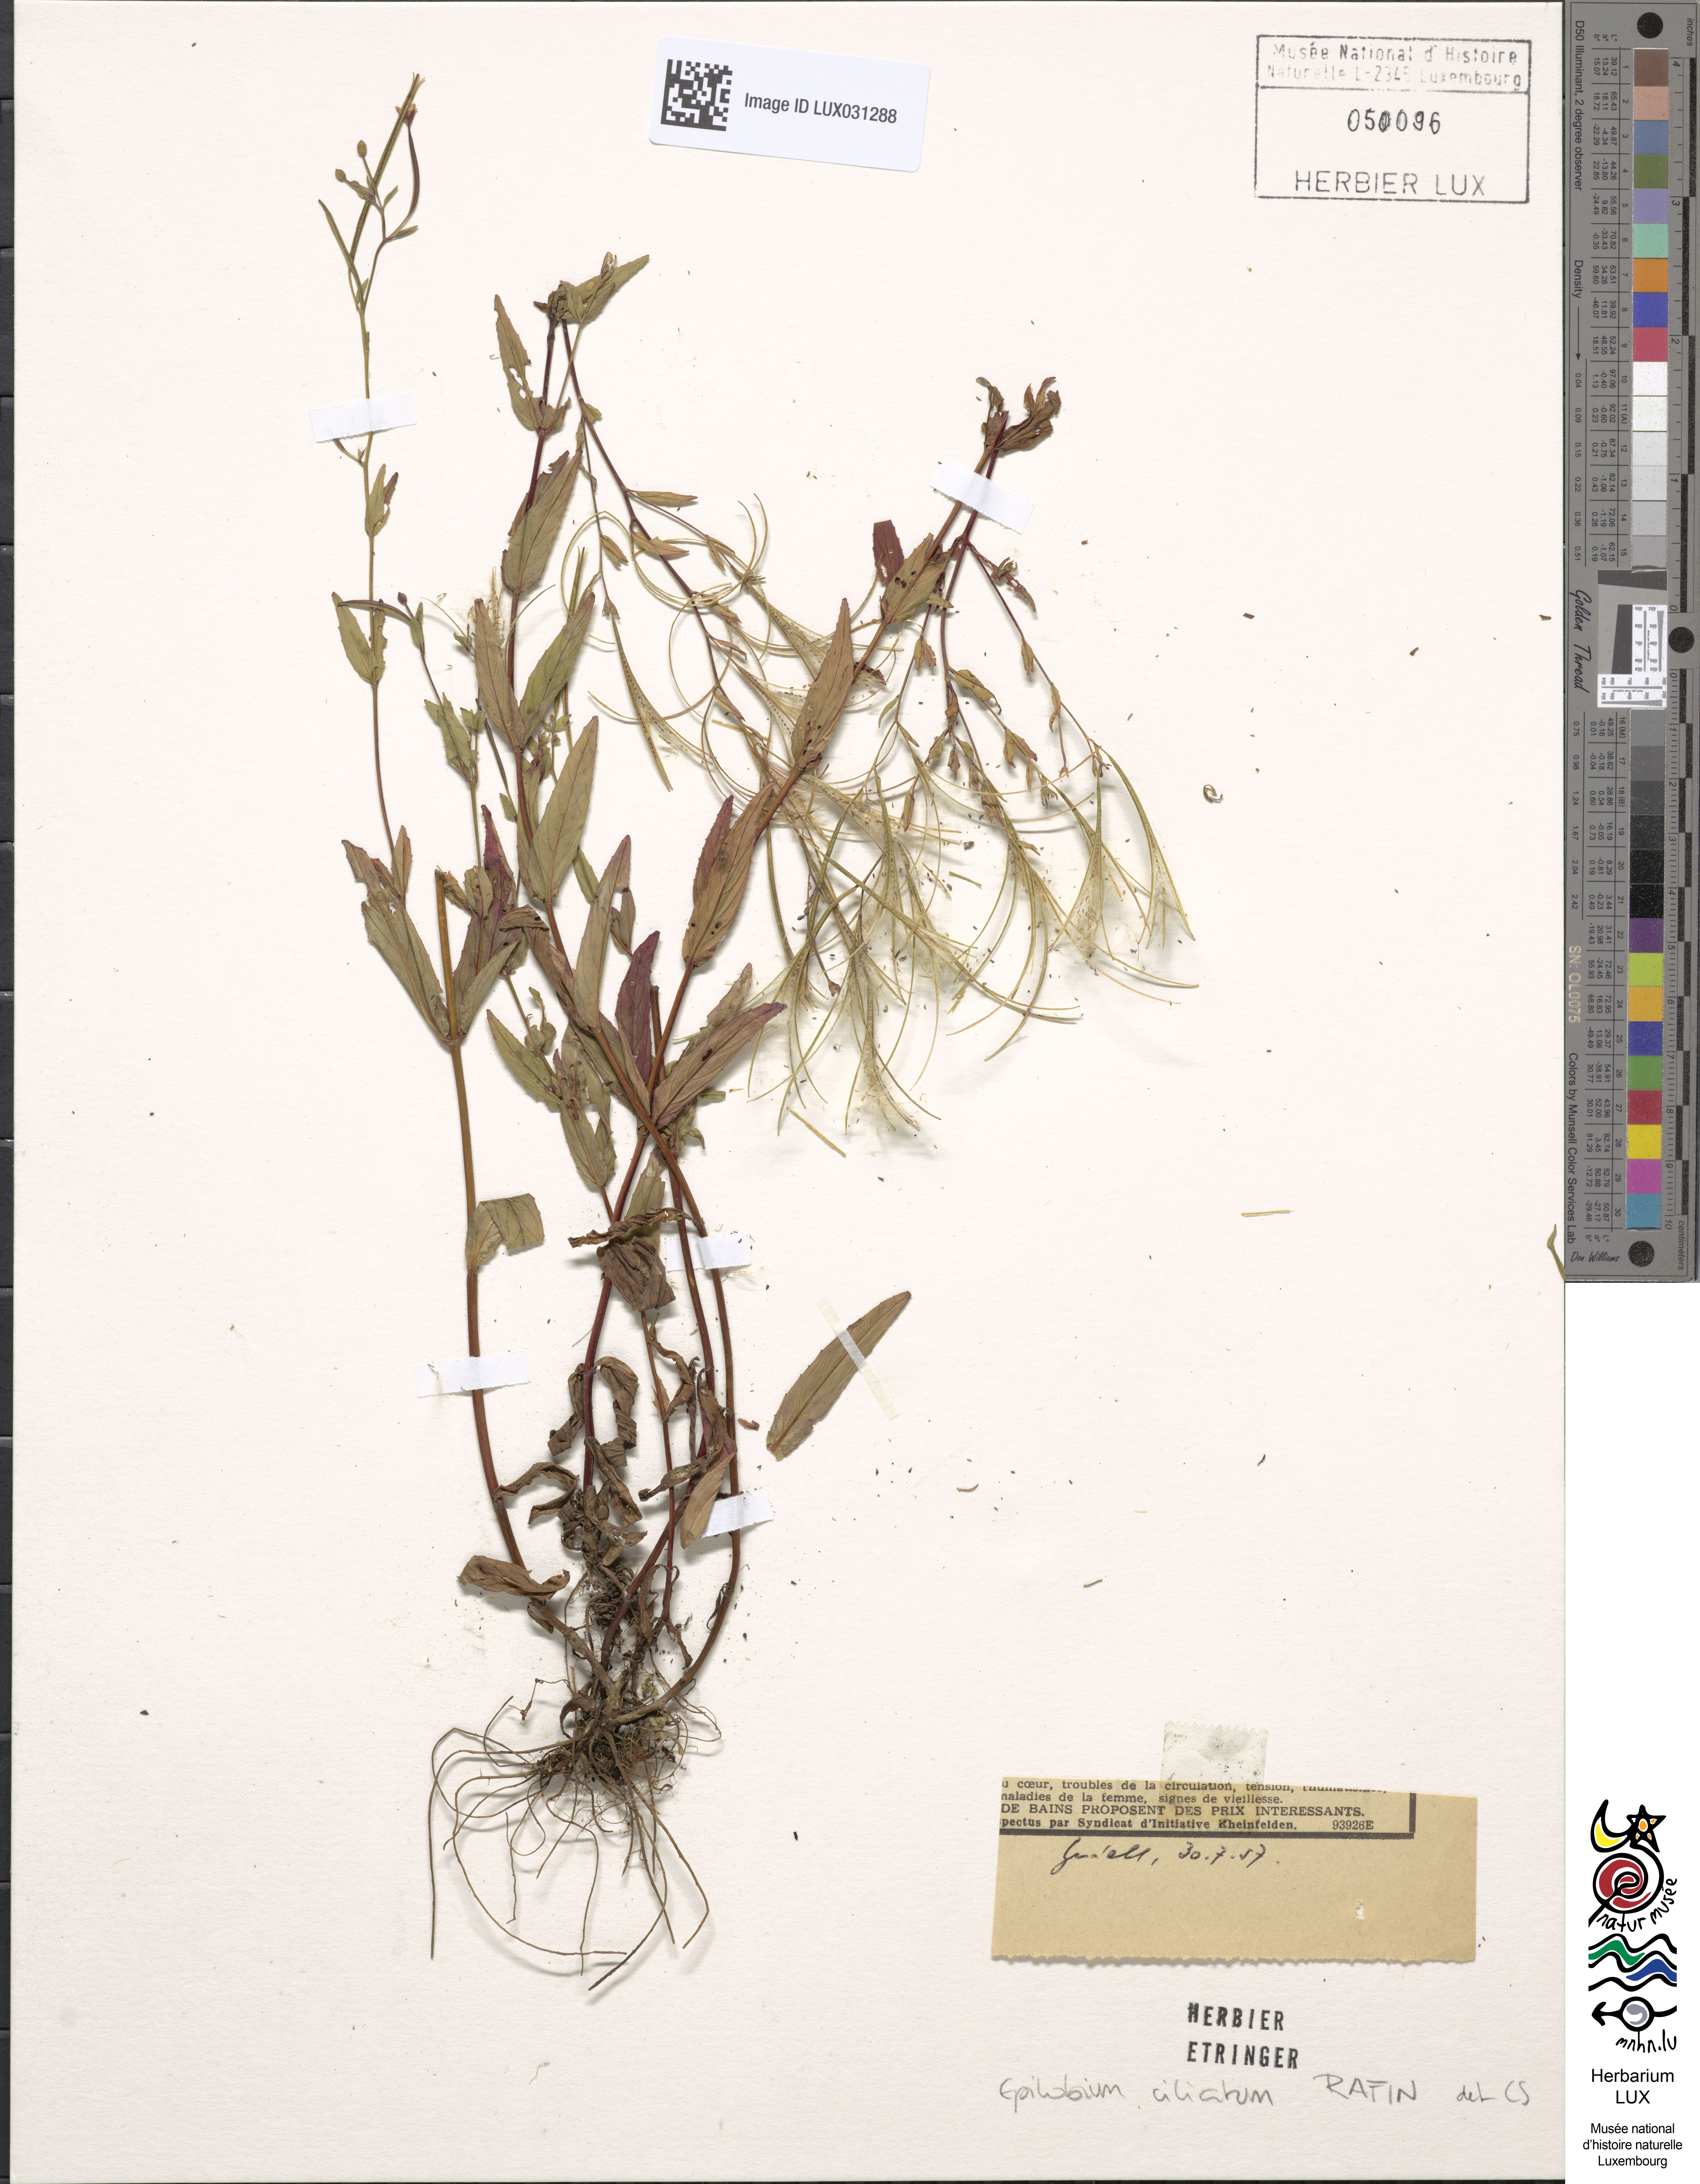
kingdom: Plantae
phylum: Tracheophyta
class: Magnoliopsida
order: Myrtales
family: Onagraceae
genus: Epilobium
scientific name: Epilobium ciliatum
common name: American willowherb
